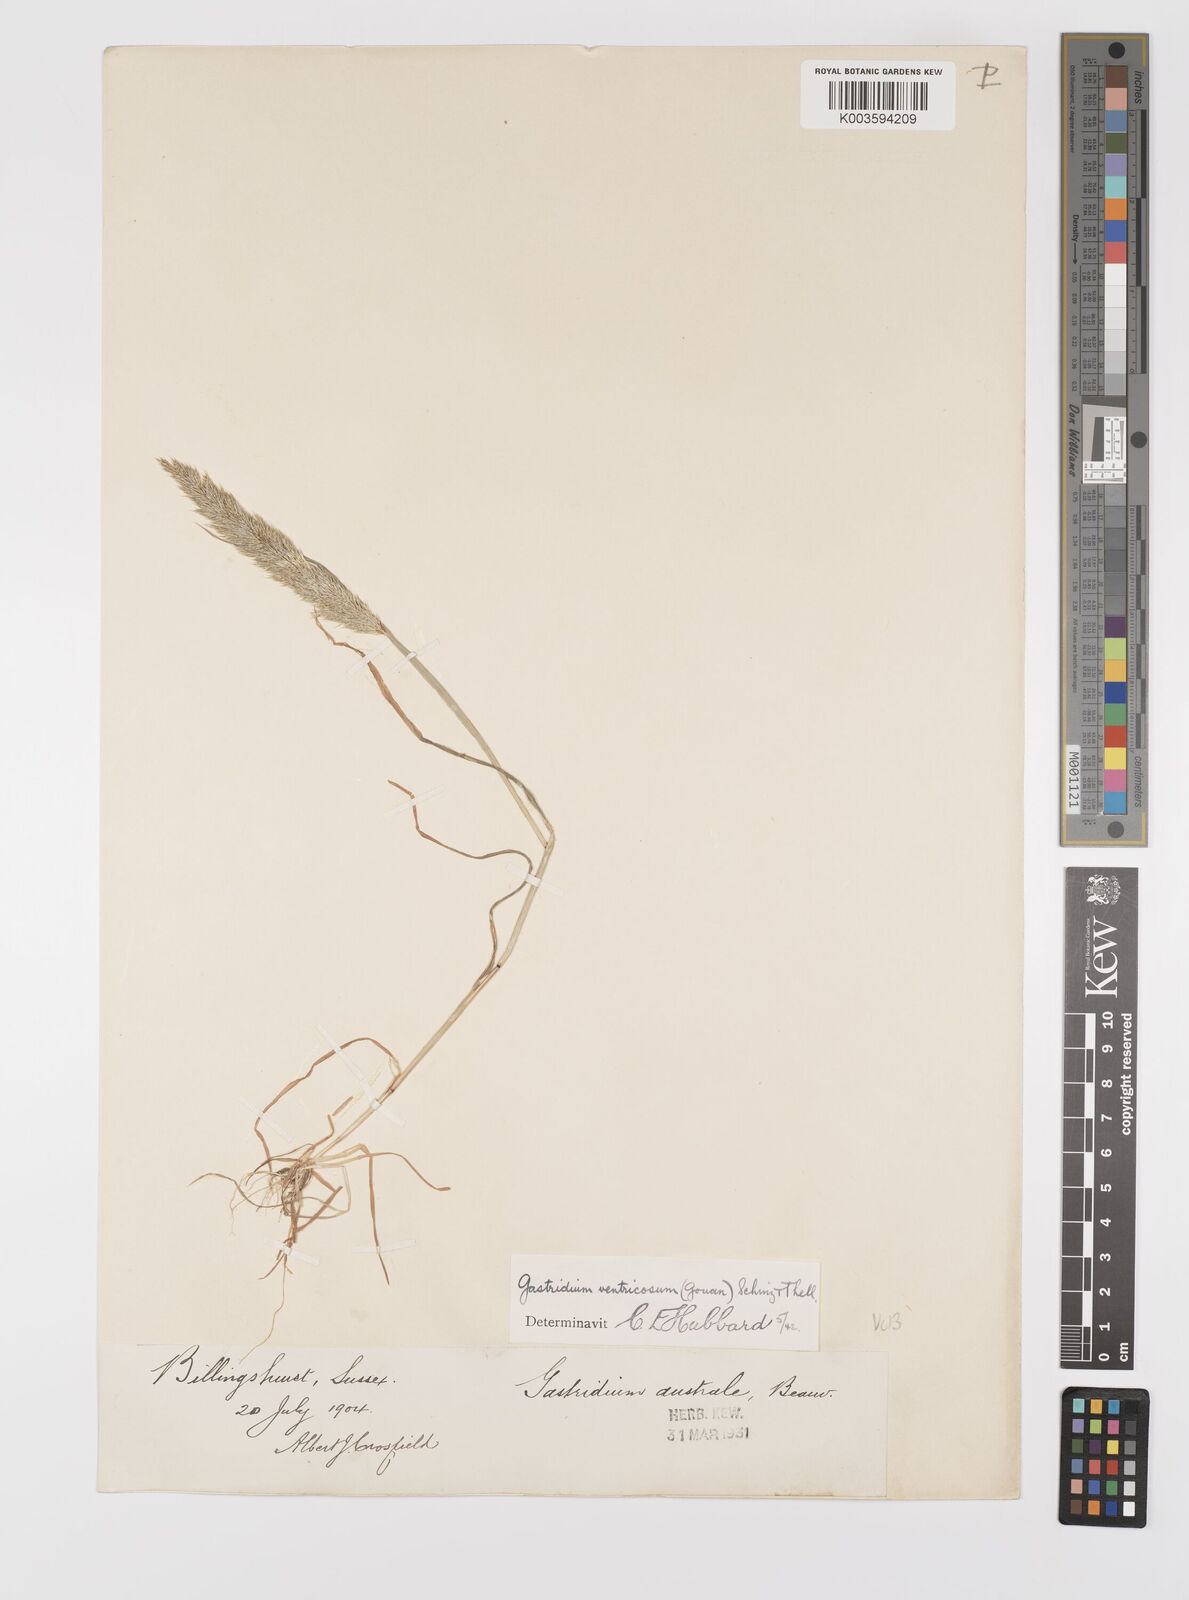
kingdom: Plantae
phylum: Tracheophyta
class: Liliopsida
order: Poales
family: Poaceae
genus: Gastridium
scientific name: Gastridium ventricosum
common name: Nit-grass
